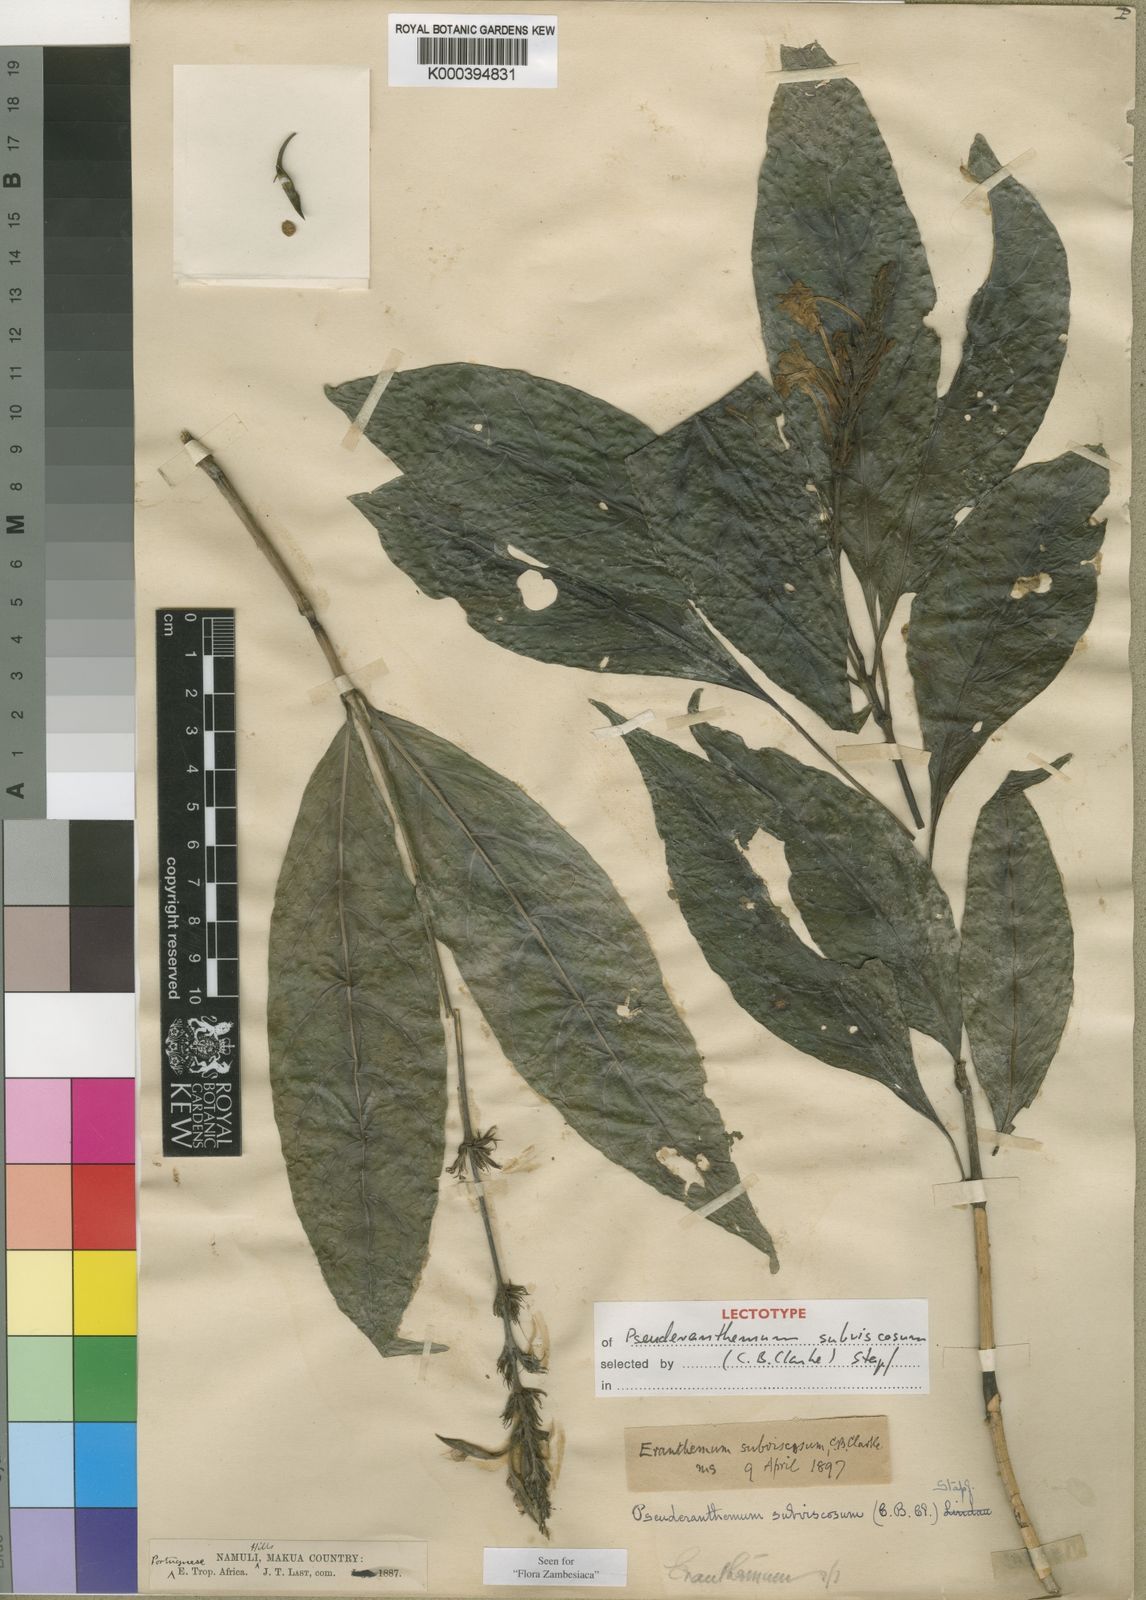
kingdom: Plantae
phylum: Tracheophyta
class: Magnoliopsida
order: Lamiales
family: Acanthaceae
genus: Pseuderanthemum
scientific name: Pseuderanthemum subviscosum
